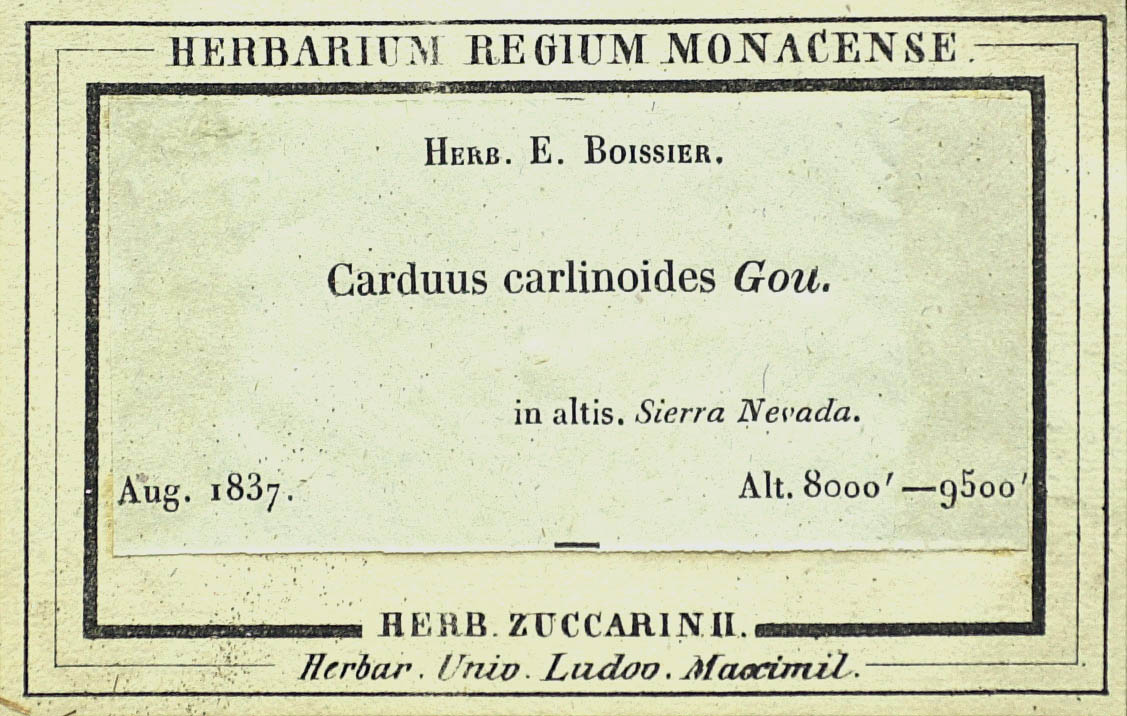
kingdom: Plantae
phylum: Tracheophyta
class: Magnoliopsida
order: Asterales
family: Asteraceae
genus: Carduus
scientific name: Carduus carlinoides
